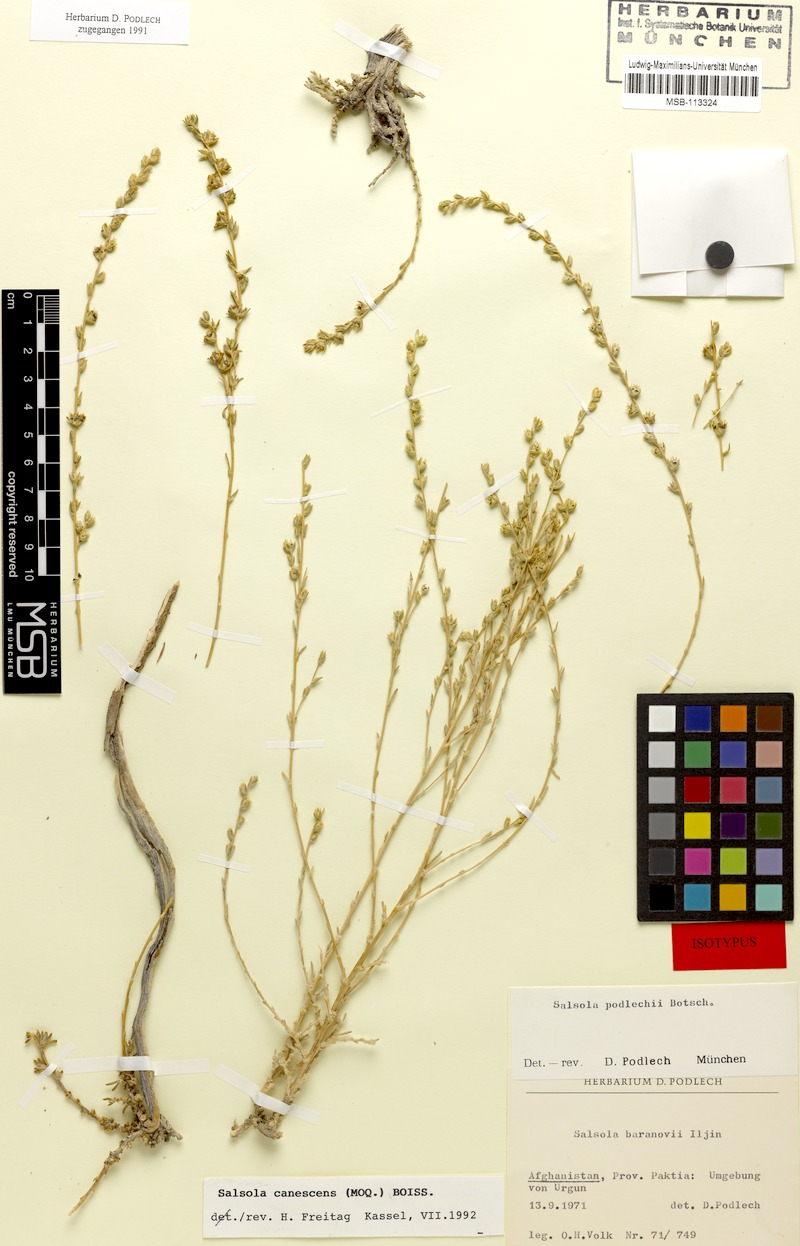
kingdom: Plantae
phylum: Tracheophyta
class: Magnoliopsida
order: Caryophyllales
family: Amaranthaceae
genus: Akhania
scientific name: Akhania canescens
